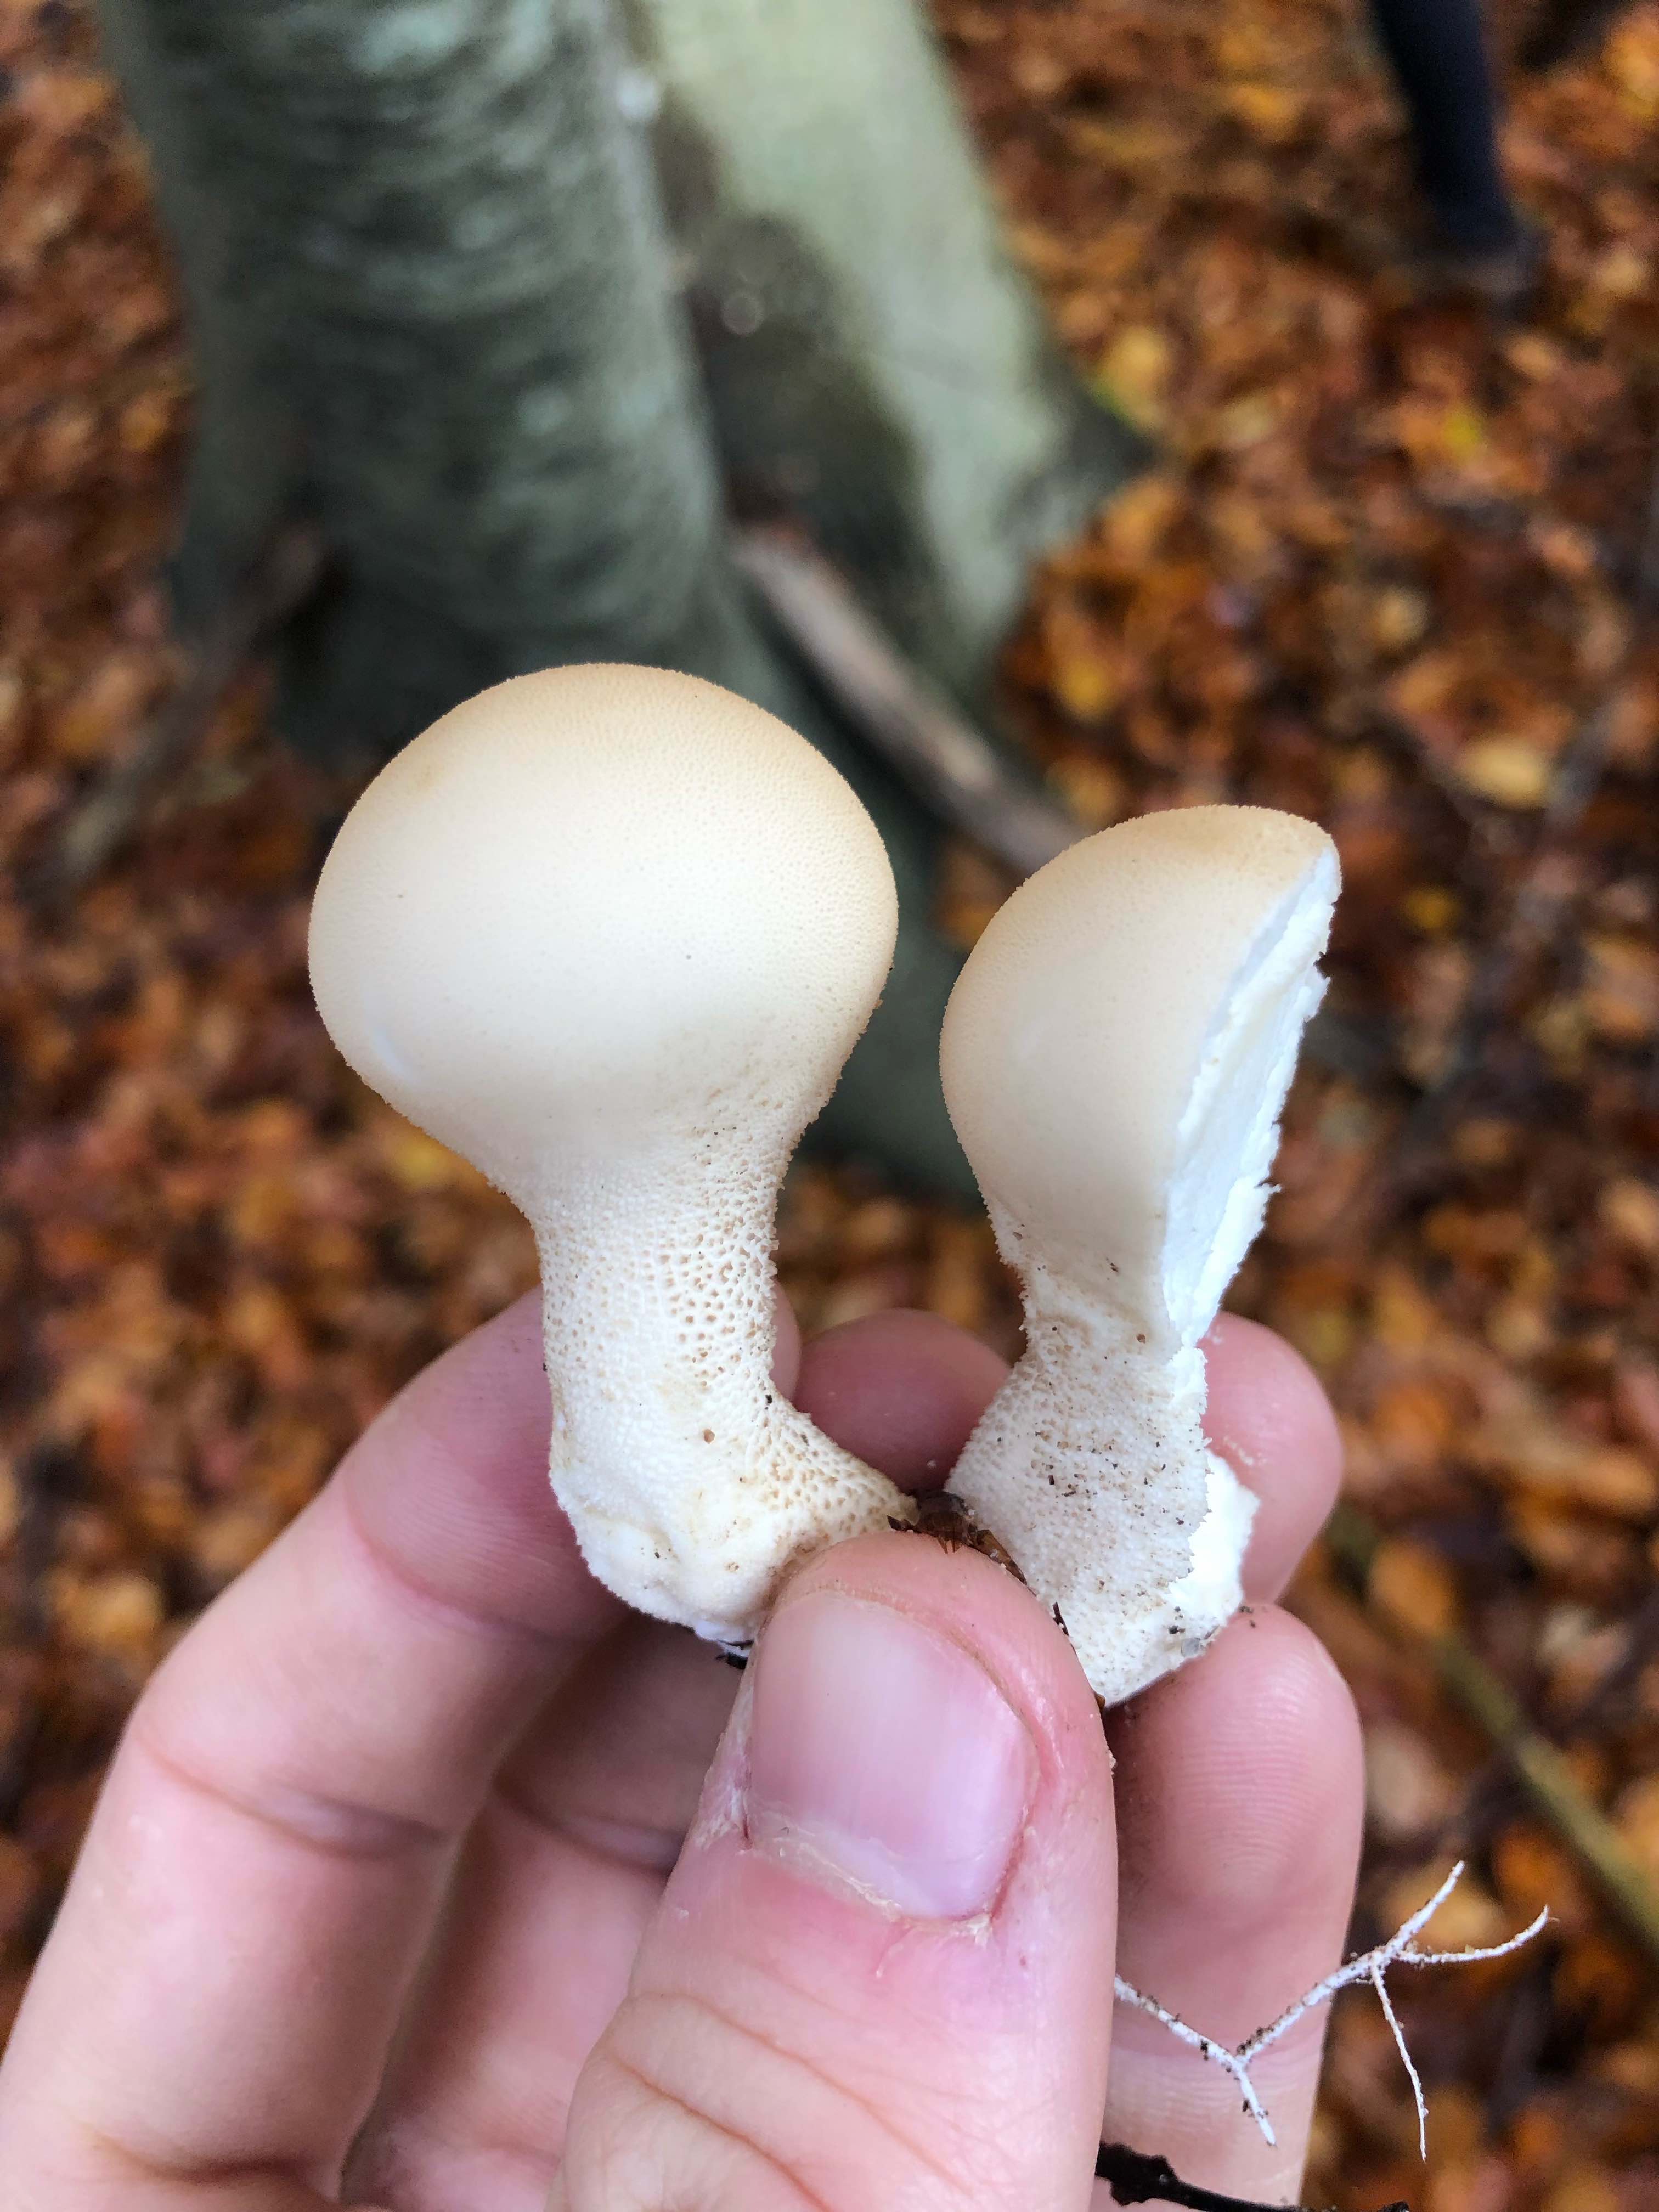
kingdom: Fungi
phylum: Basidiomycota
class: Agaricomycetes
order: Agaricales
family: Lycoperdaceae
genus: Apioperdon
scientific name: Apioperdon pyriforme
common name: pære-støvbold
